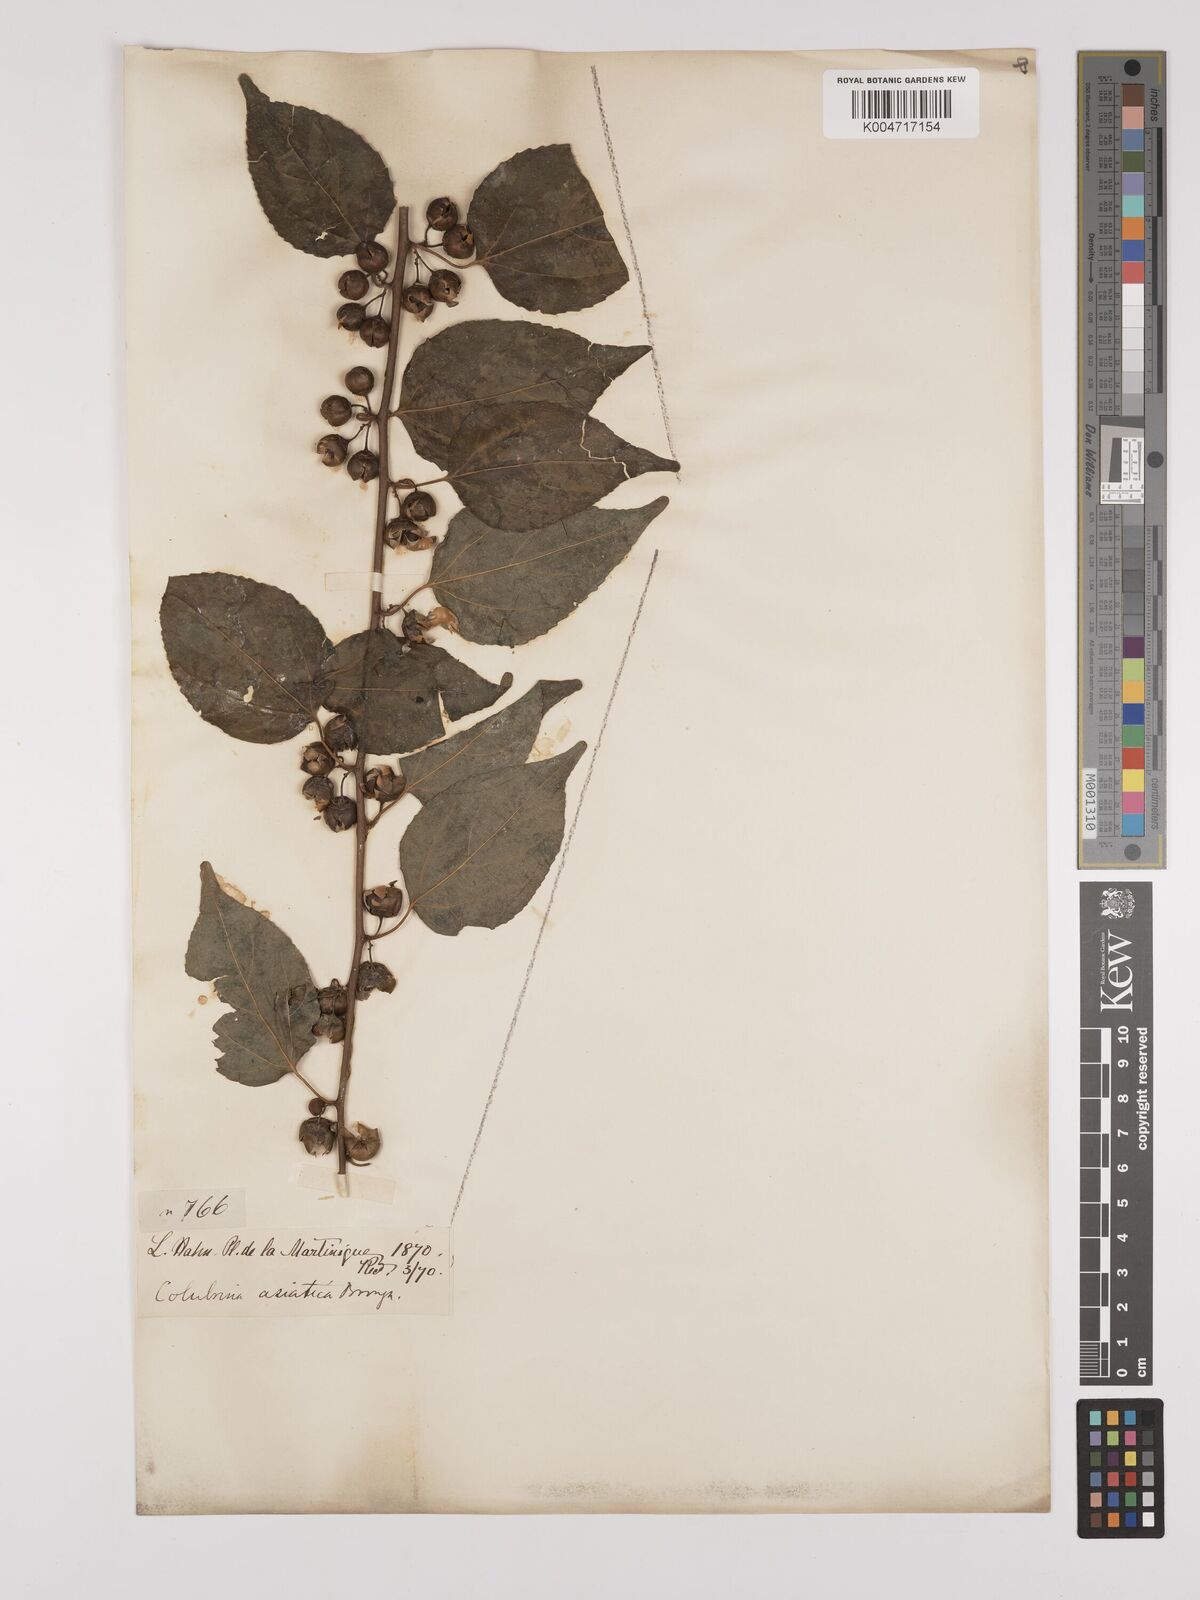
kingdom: Plantae
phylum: Tracheophyta
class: Magnoliopsida
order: Rosales
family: Rhamnaceae
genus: Colubrina
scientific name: Colubrina asiatica
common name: Asian nakedwood
